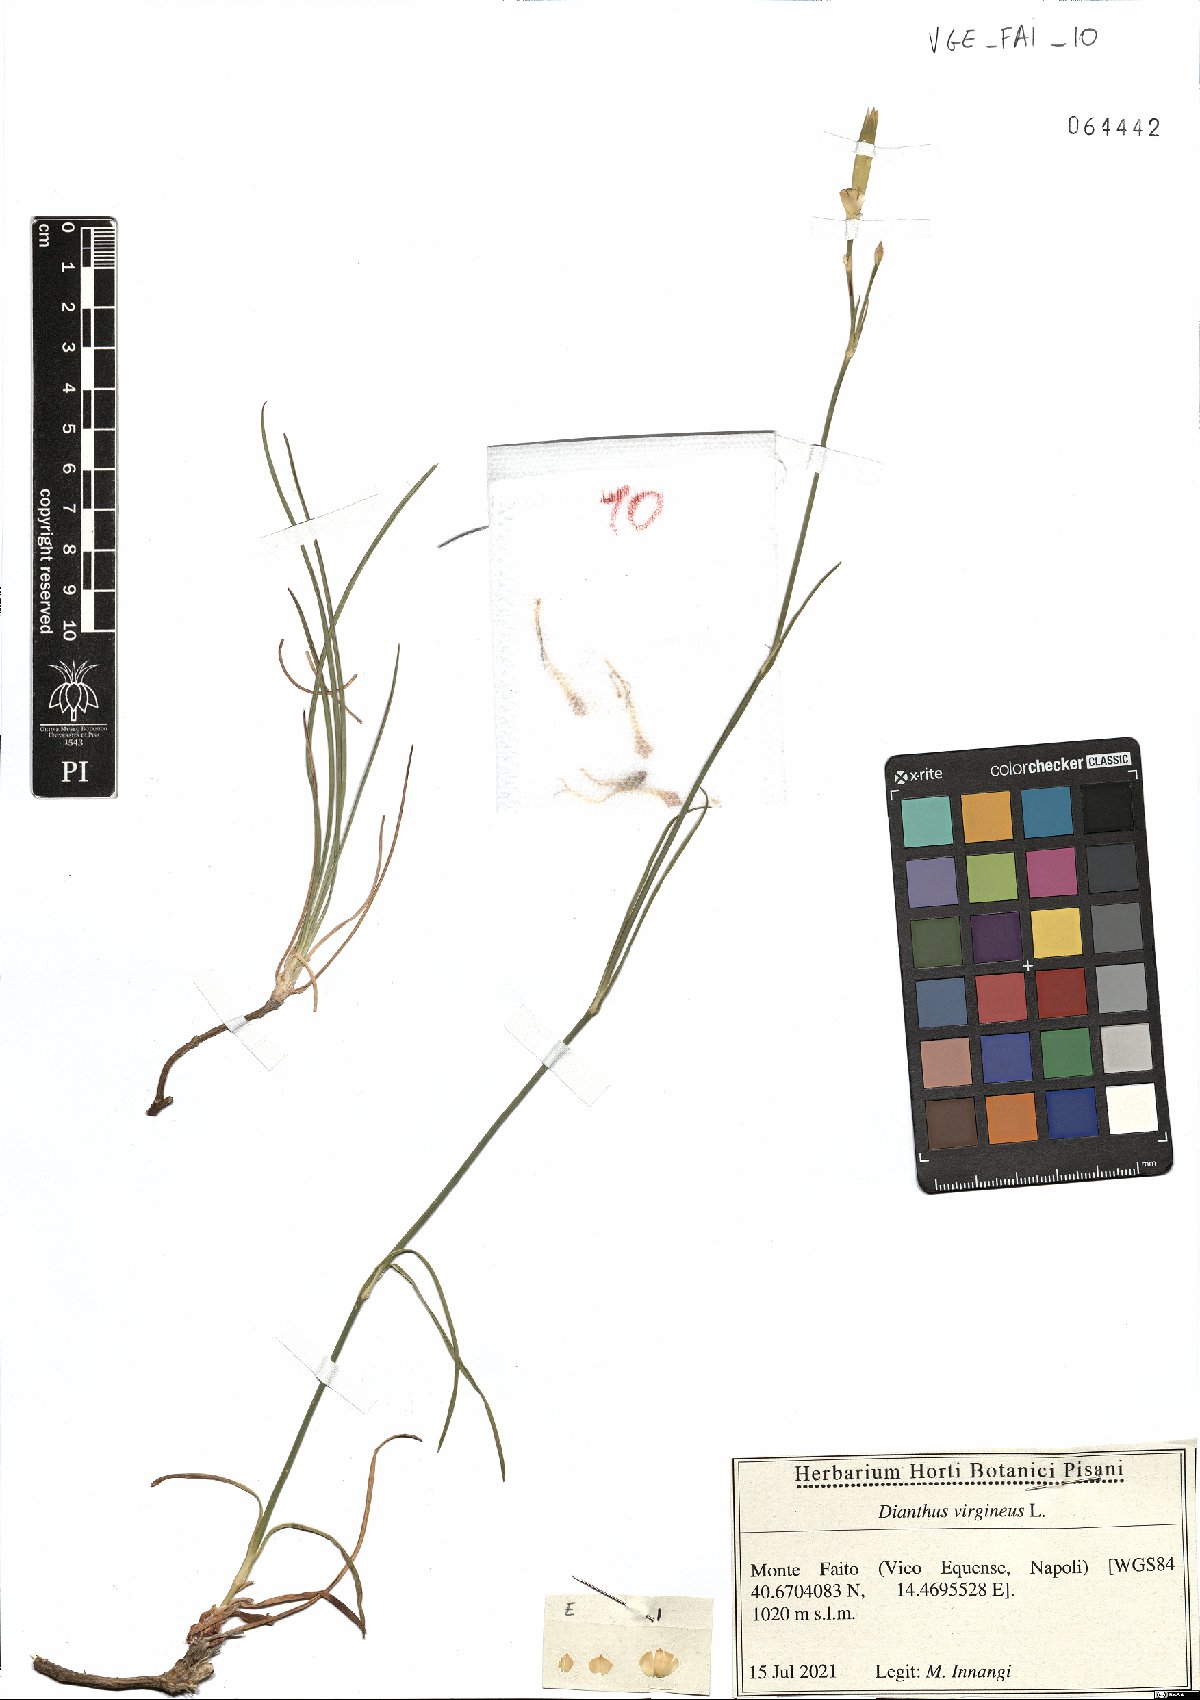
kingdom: Plantae
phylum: Tracheophyta
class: Magnoliopsida
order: Caryophyllales
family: Caryophyllaceae
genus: Dianthus
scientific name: Dianthus virgineus
